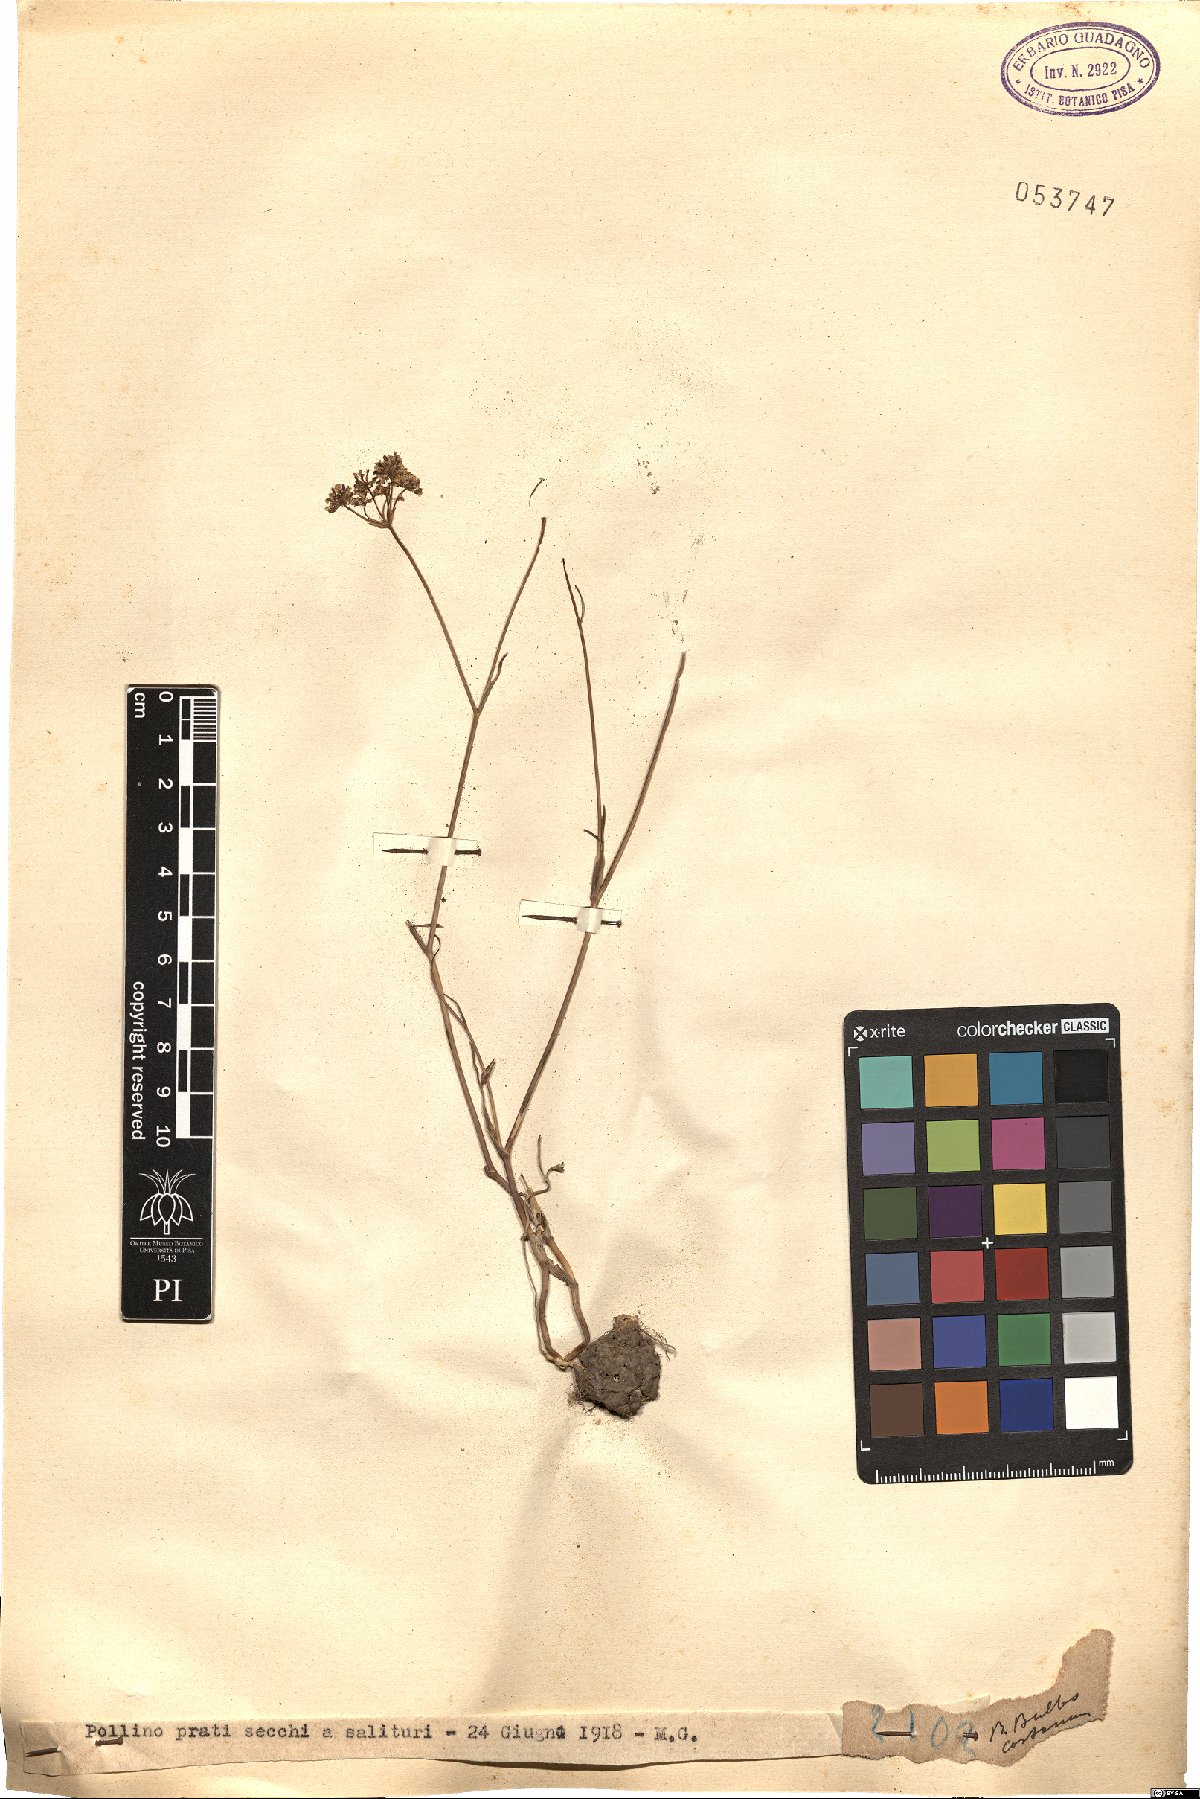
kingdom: Plantae
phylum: Tracheophyta
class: Magnoliopsida
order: Apiales
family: Apiaceae
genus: Bunium
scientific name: Bunium bulbocastanum
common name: Great pignut
